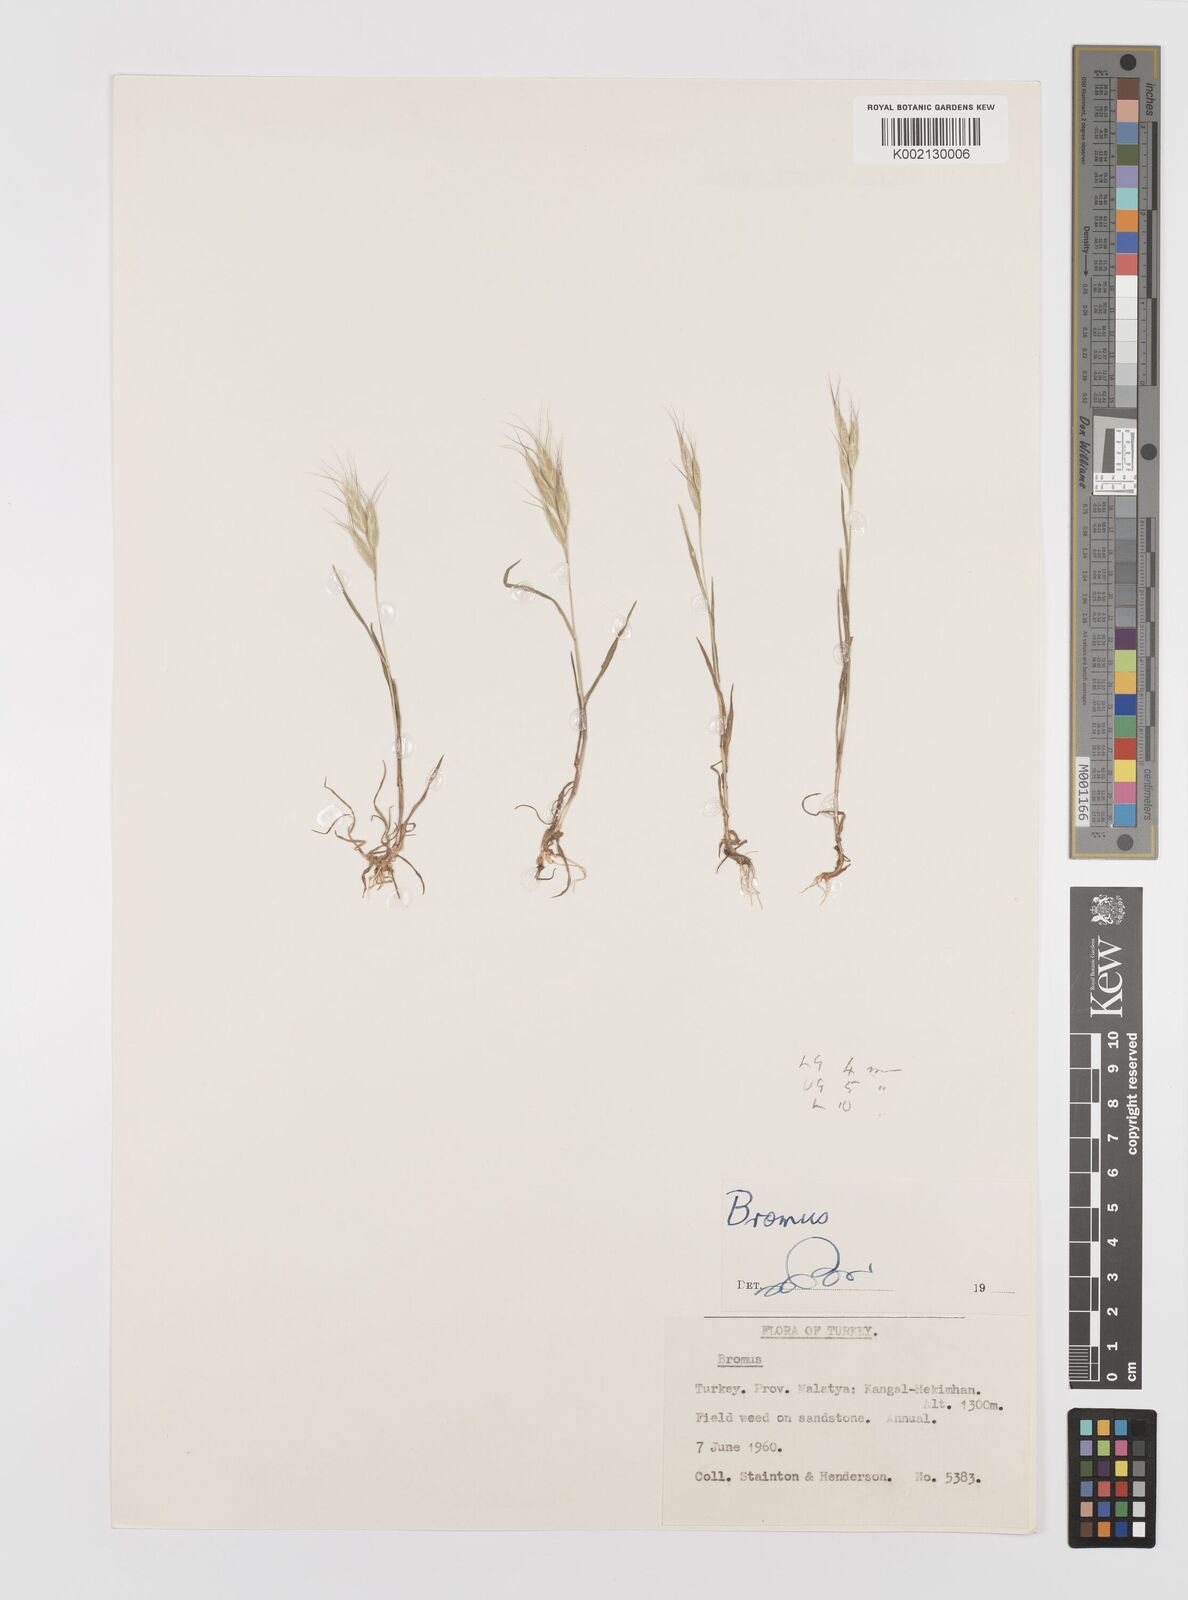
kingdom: Plantae
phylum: Tracheophyta
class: Liliopsida
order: Poales
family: Poaceae
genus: Bromus
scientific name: Bromus danthoniae
